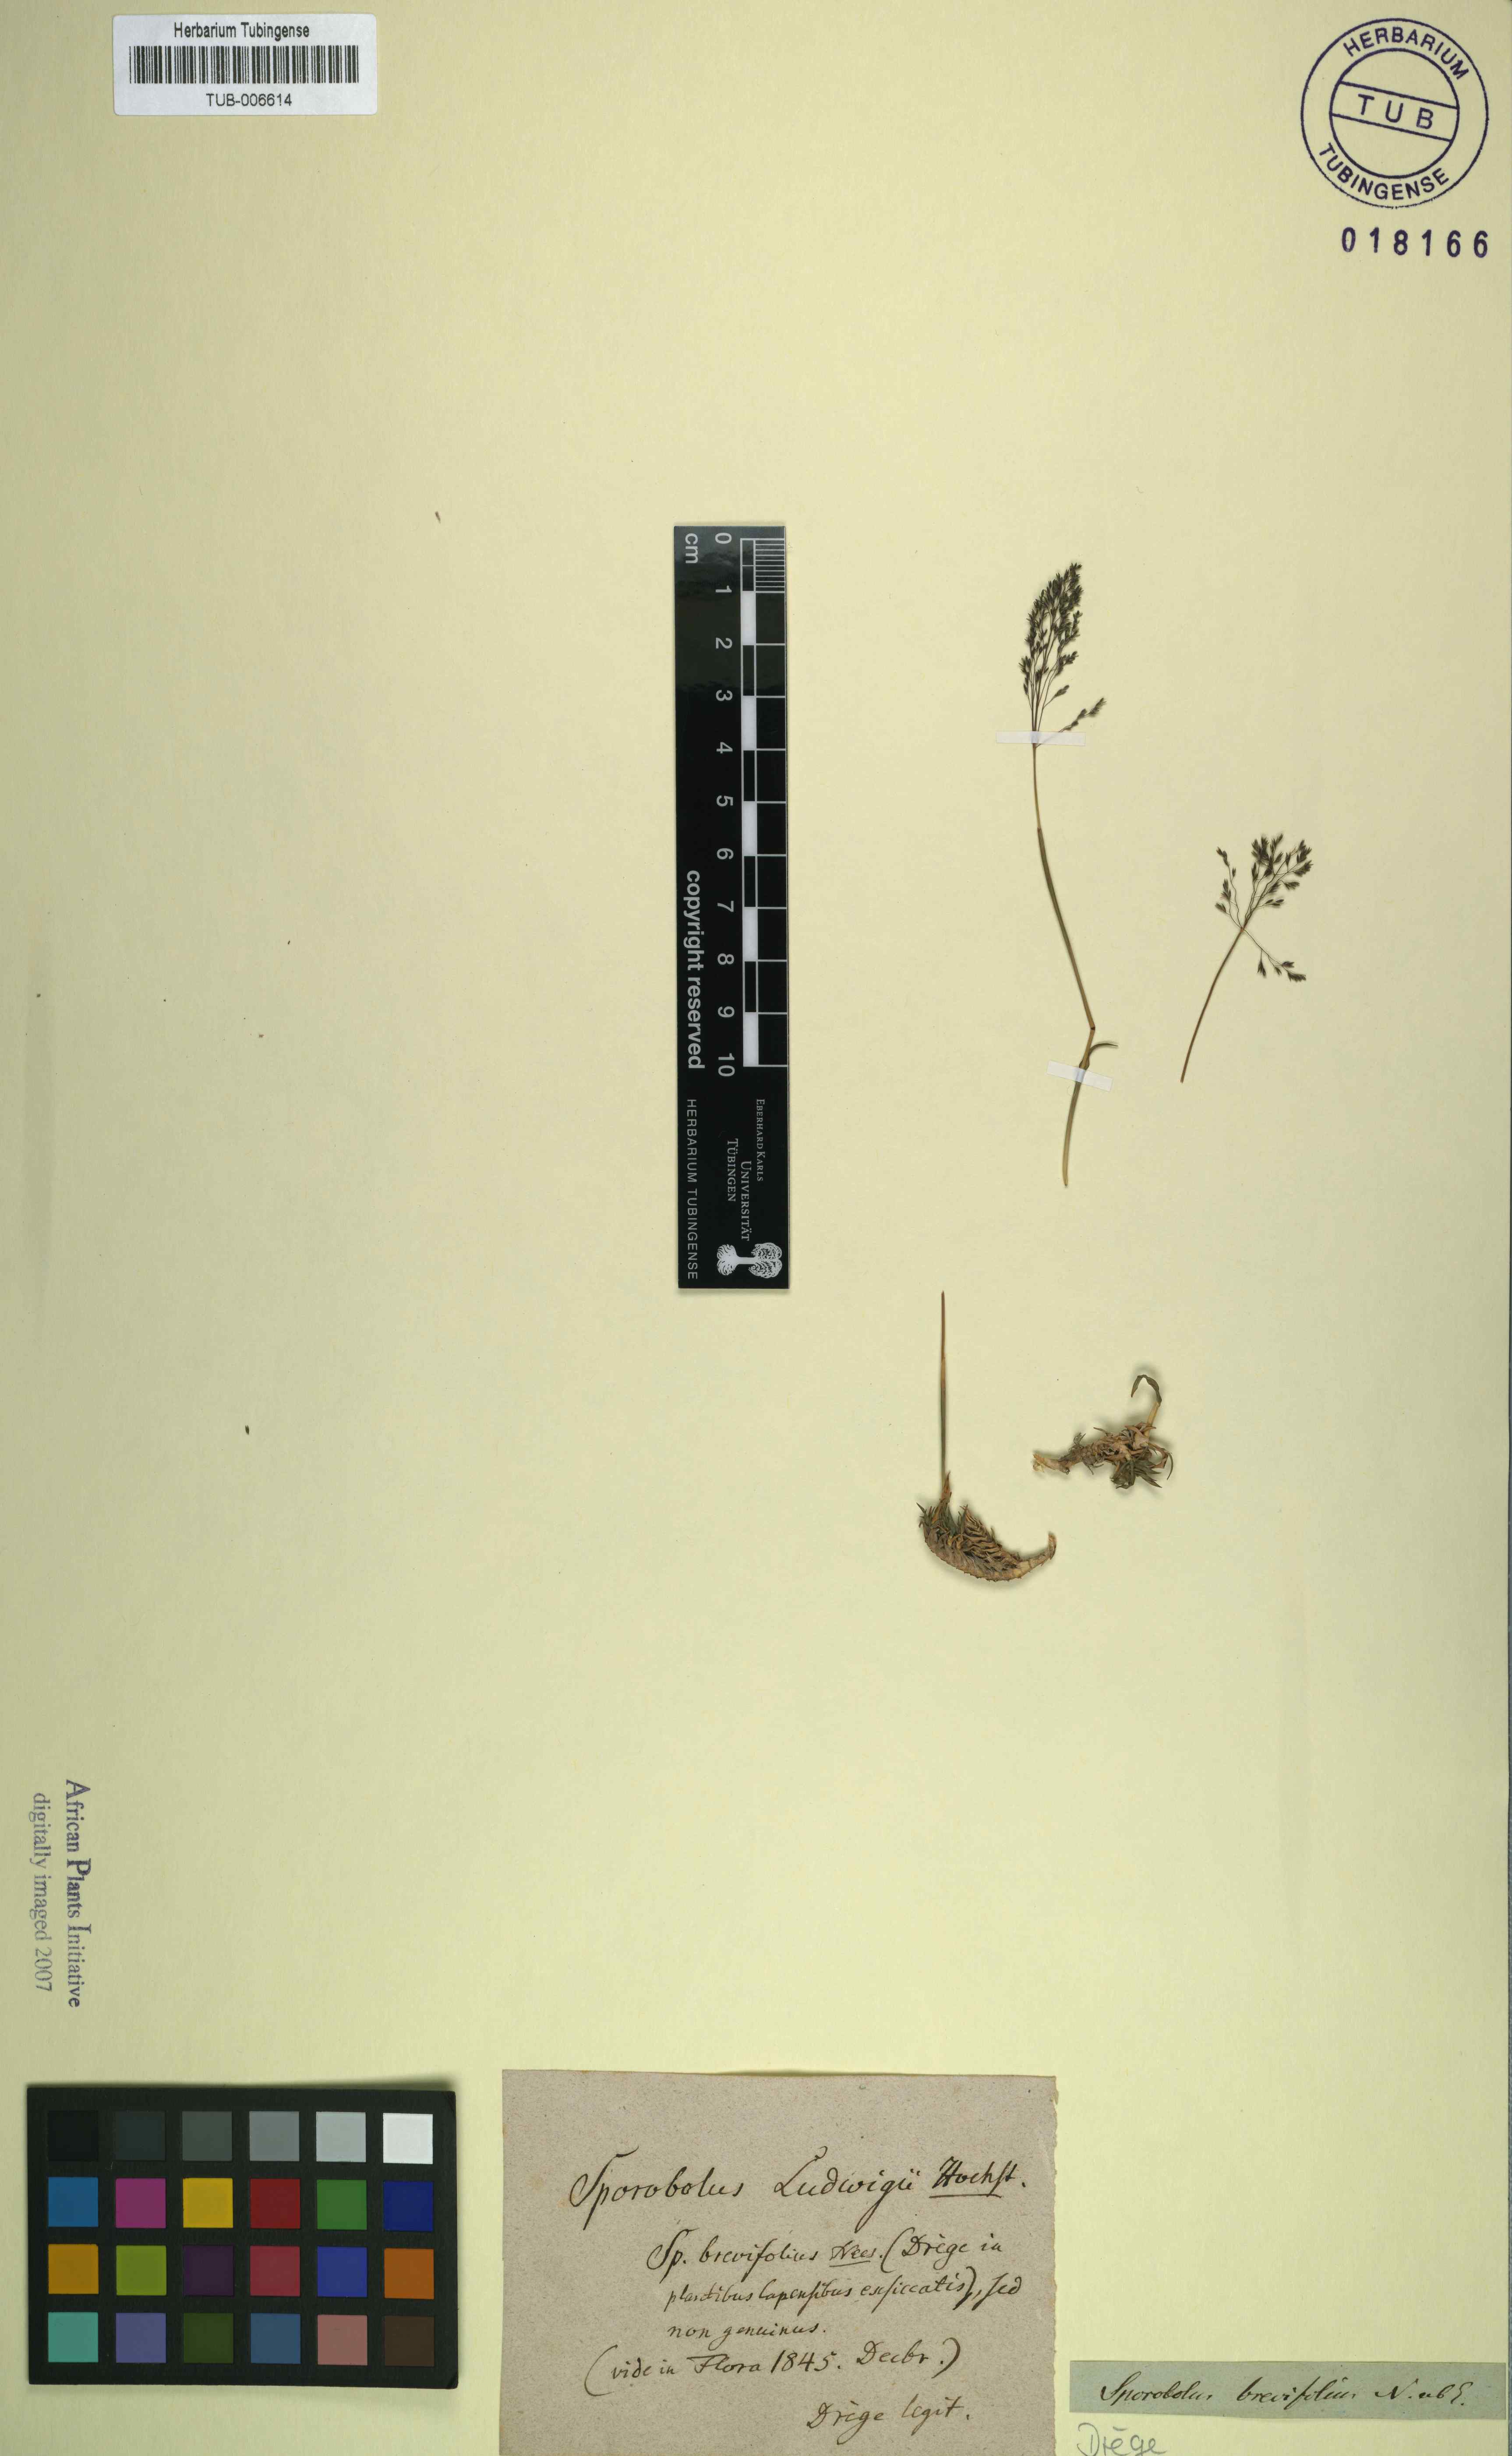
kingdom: Plantae
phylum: Tracheophyta
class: Liliopsida
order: Poales
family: Poaceae
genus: Sporobolus
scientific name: Sporobolus ludwigii
